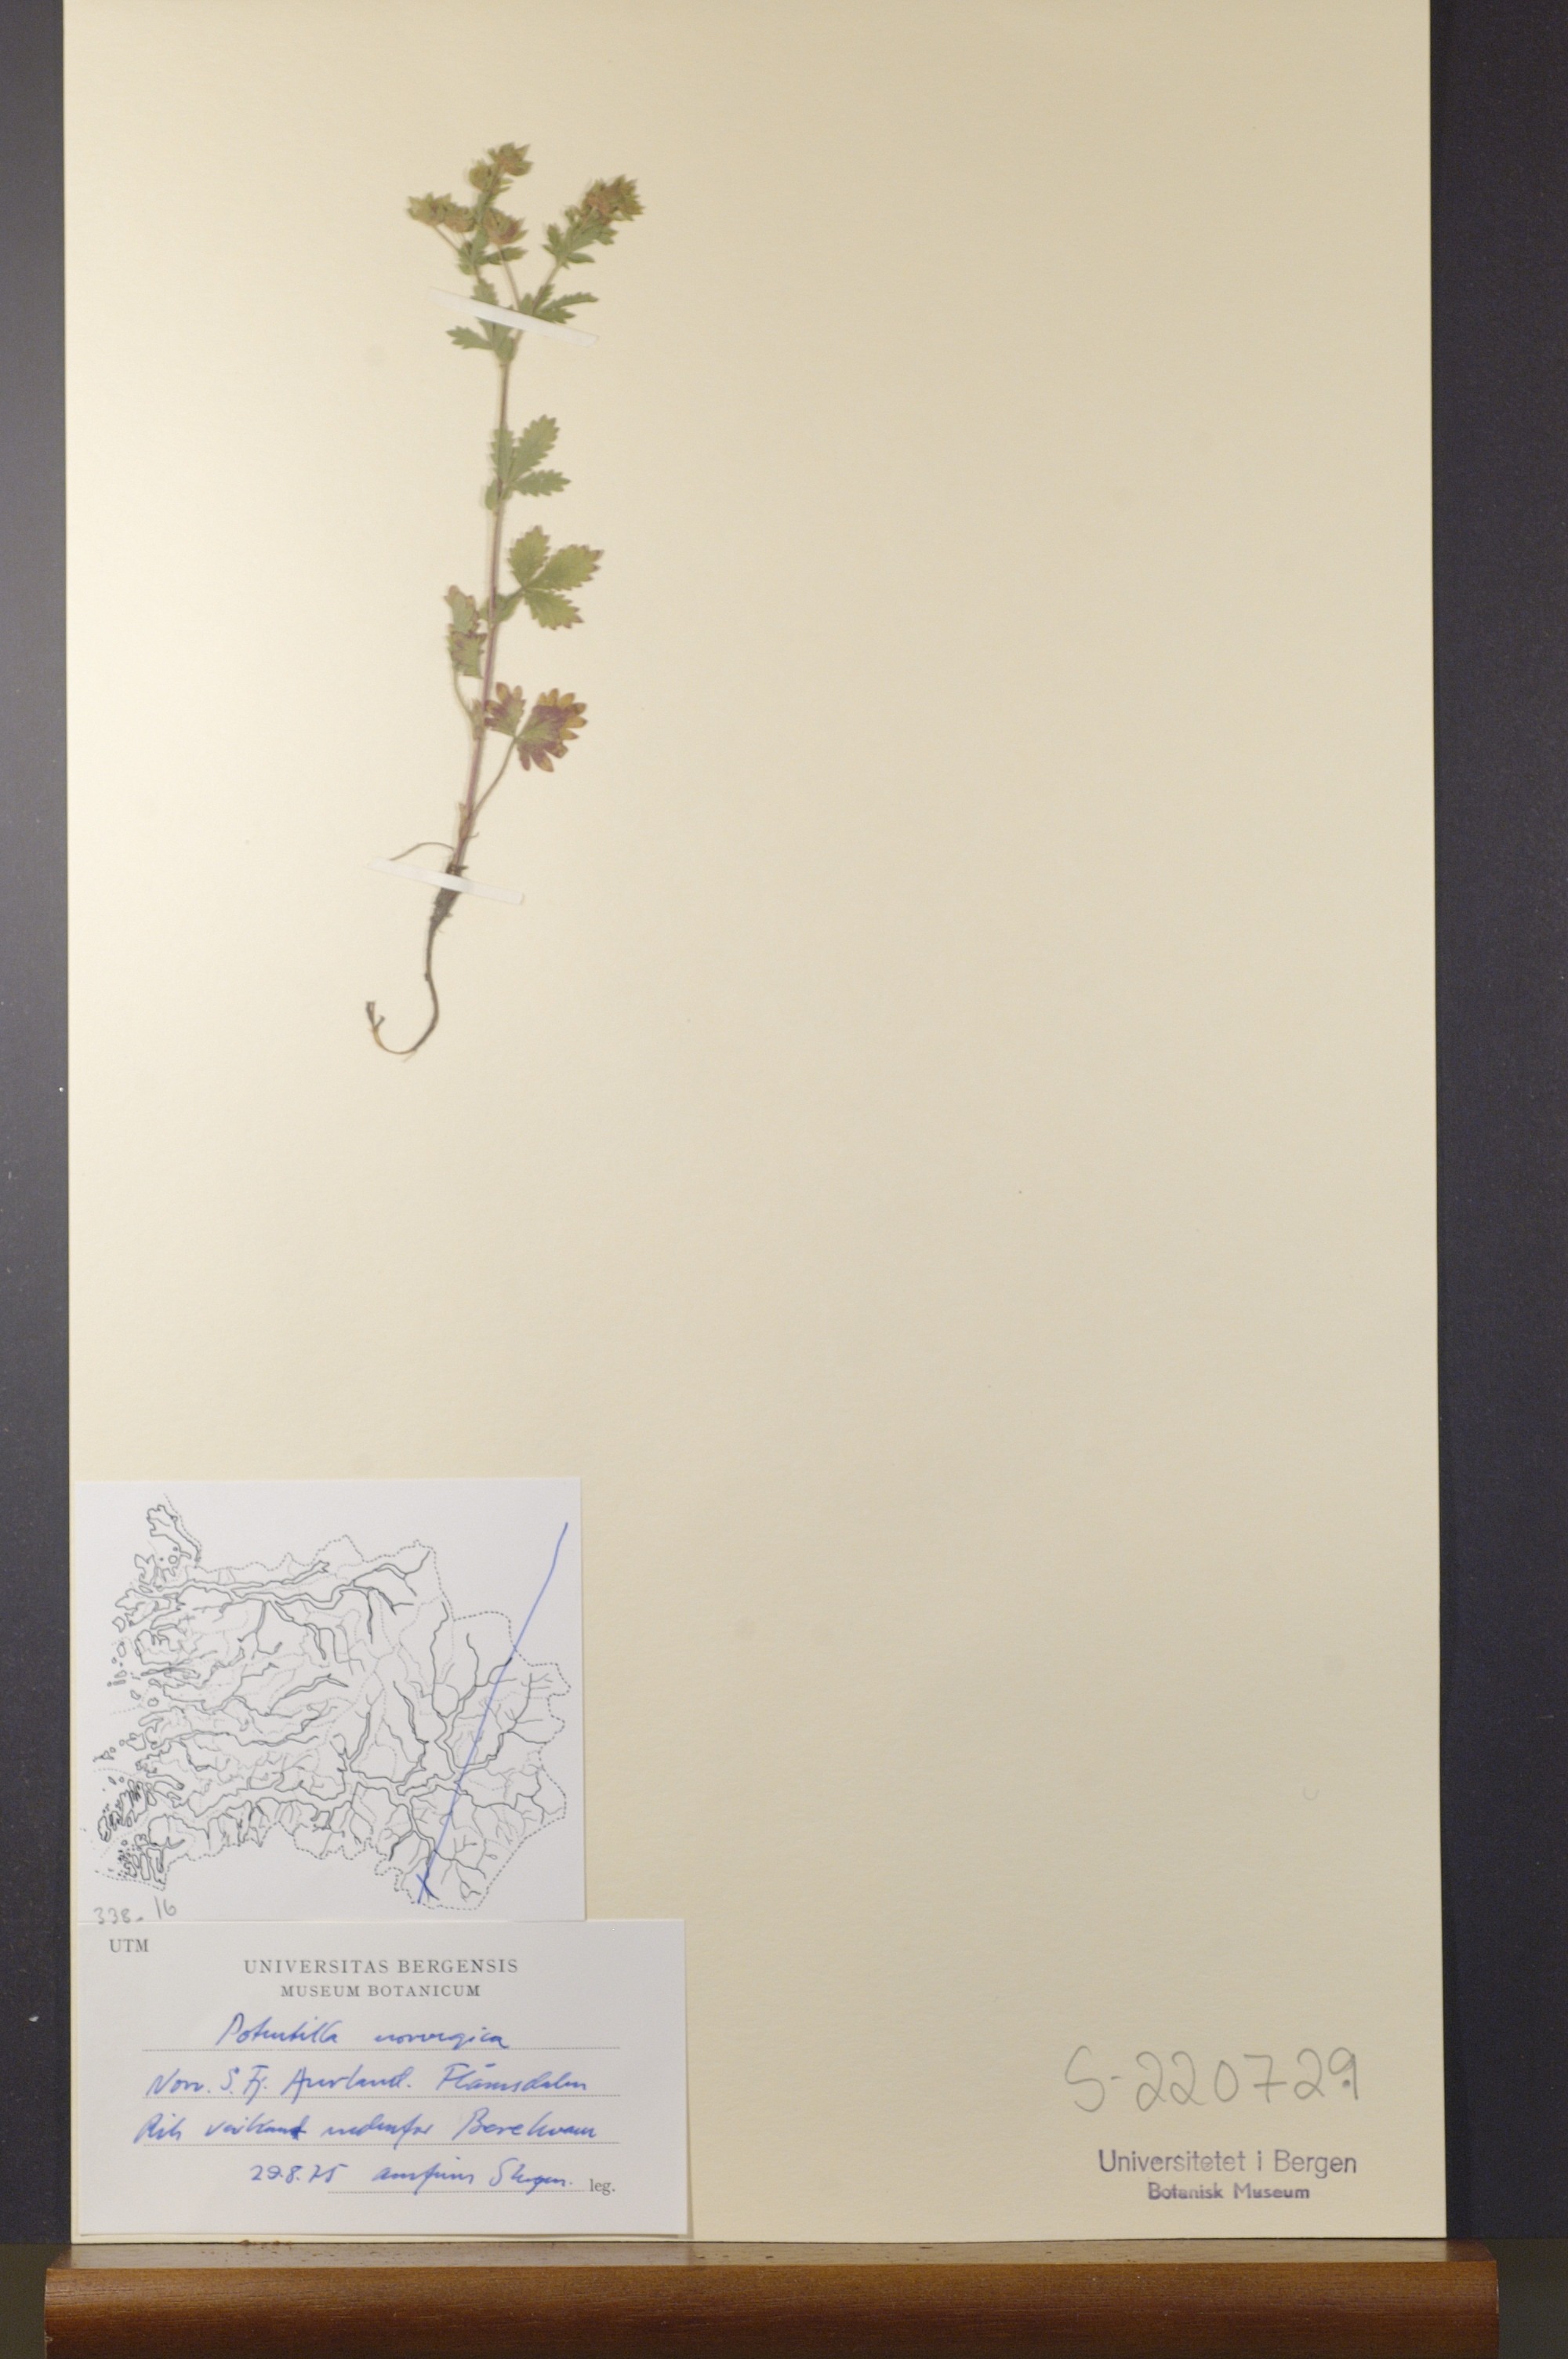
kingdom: Plantae
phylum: Tracheophyta
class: Magnoliopsida
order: Rosales
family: Rosaceae
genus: Potentilla
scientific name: Potentilla norvegica
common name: Ternate-leaved cinquefoil
